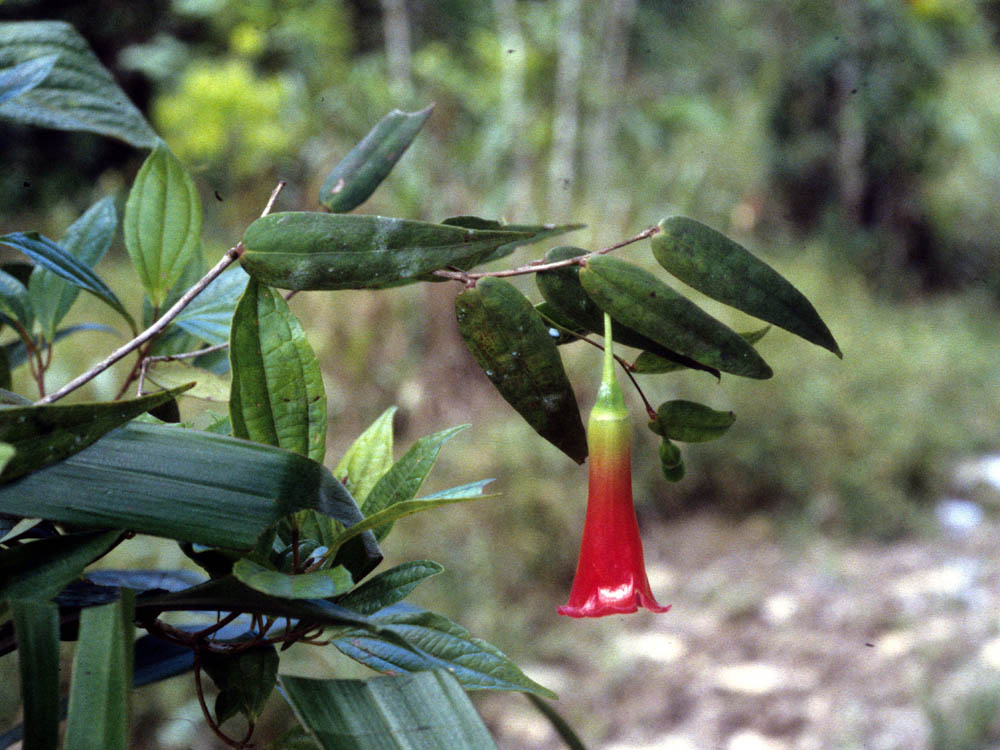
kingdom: Plantae
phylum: Tracheophyta
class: Magnoliopsida
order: Ericales
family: Ericaceae
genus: Semiramisia
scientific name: Semiramisia speciosa
